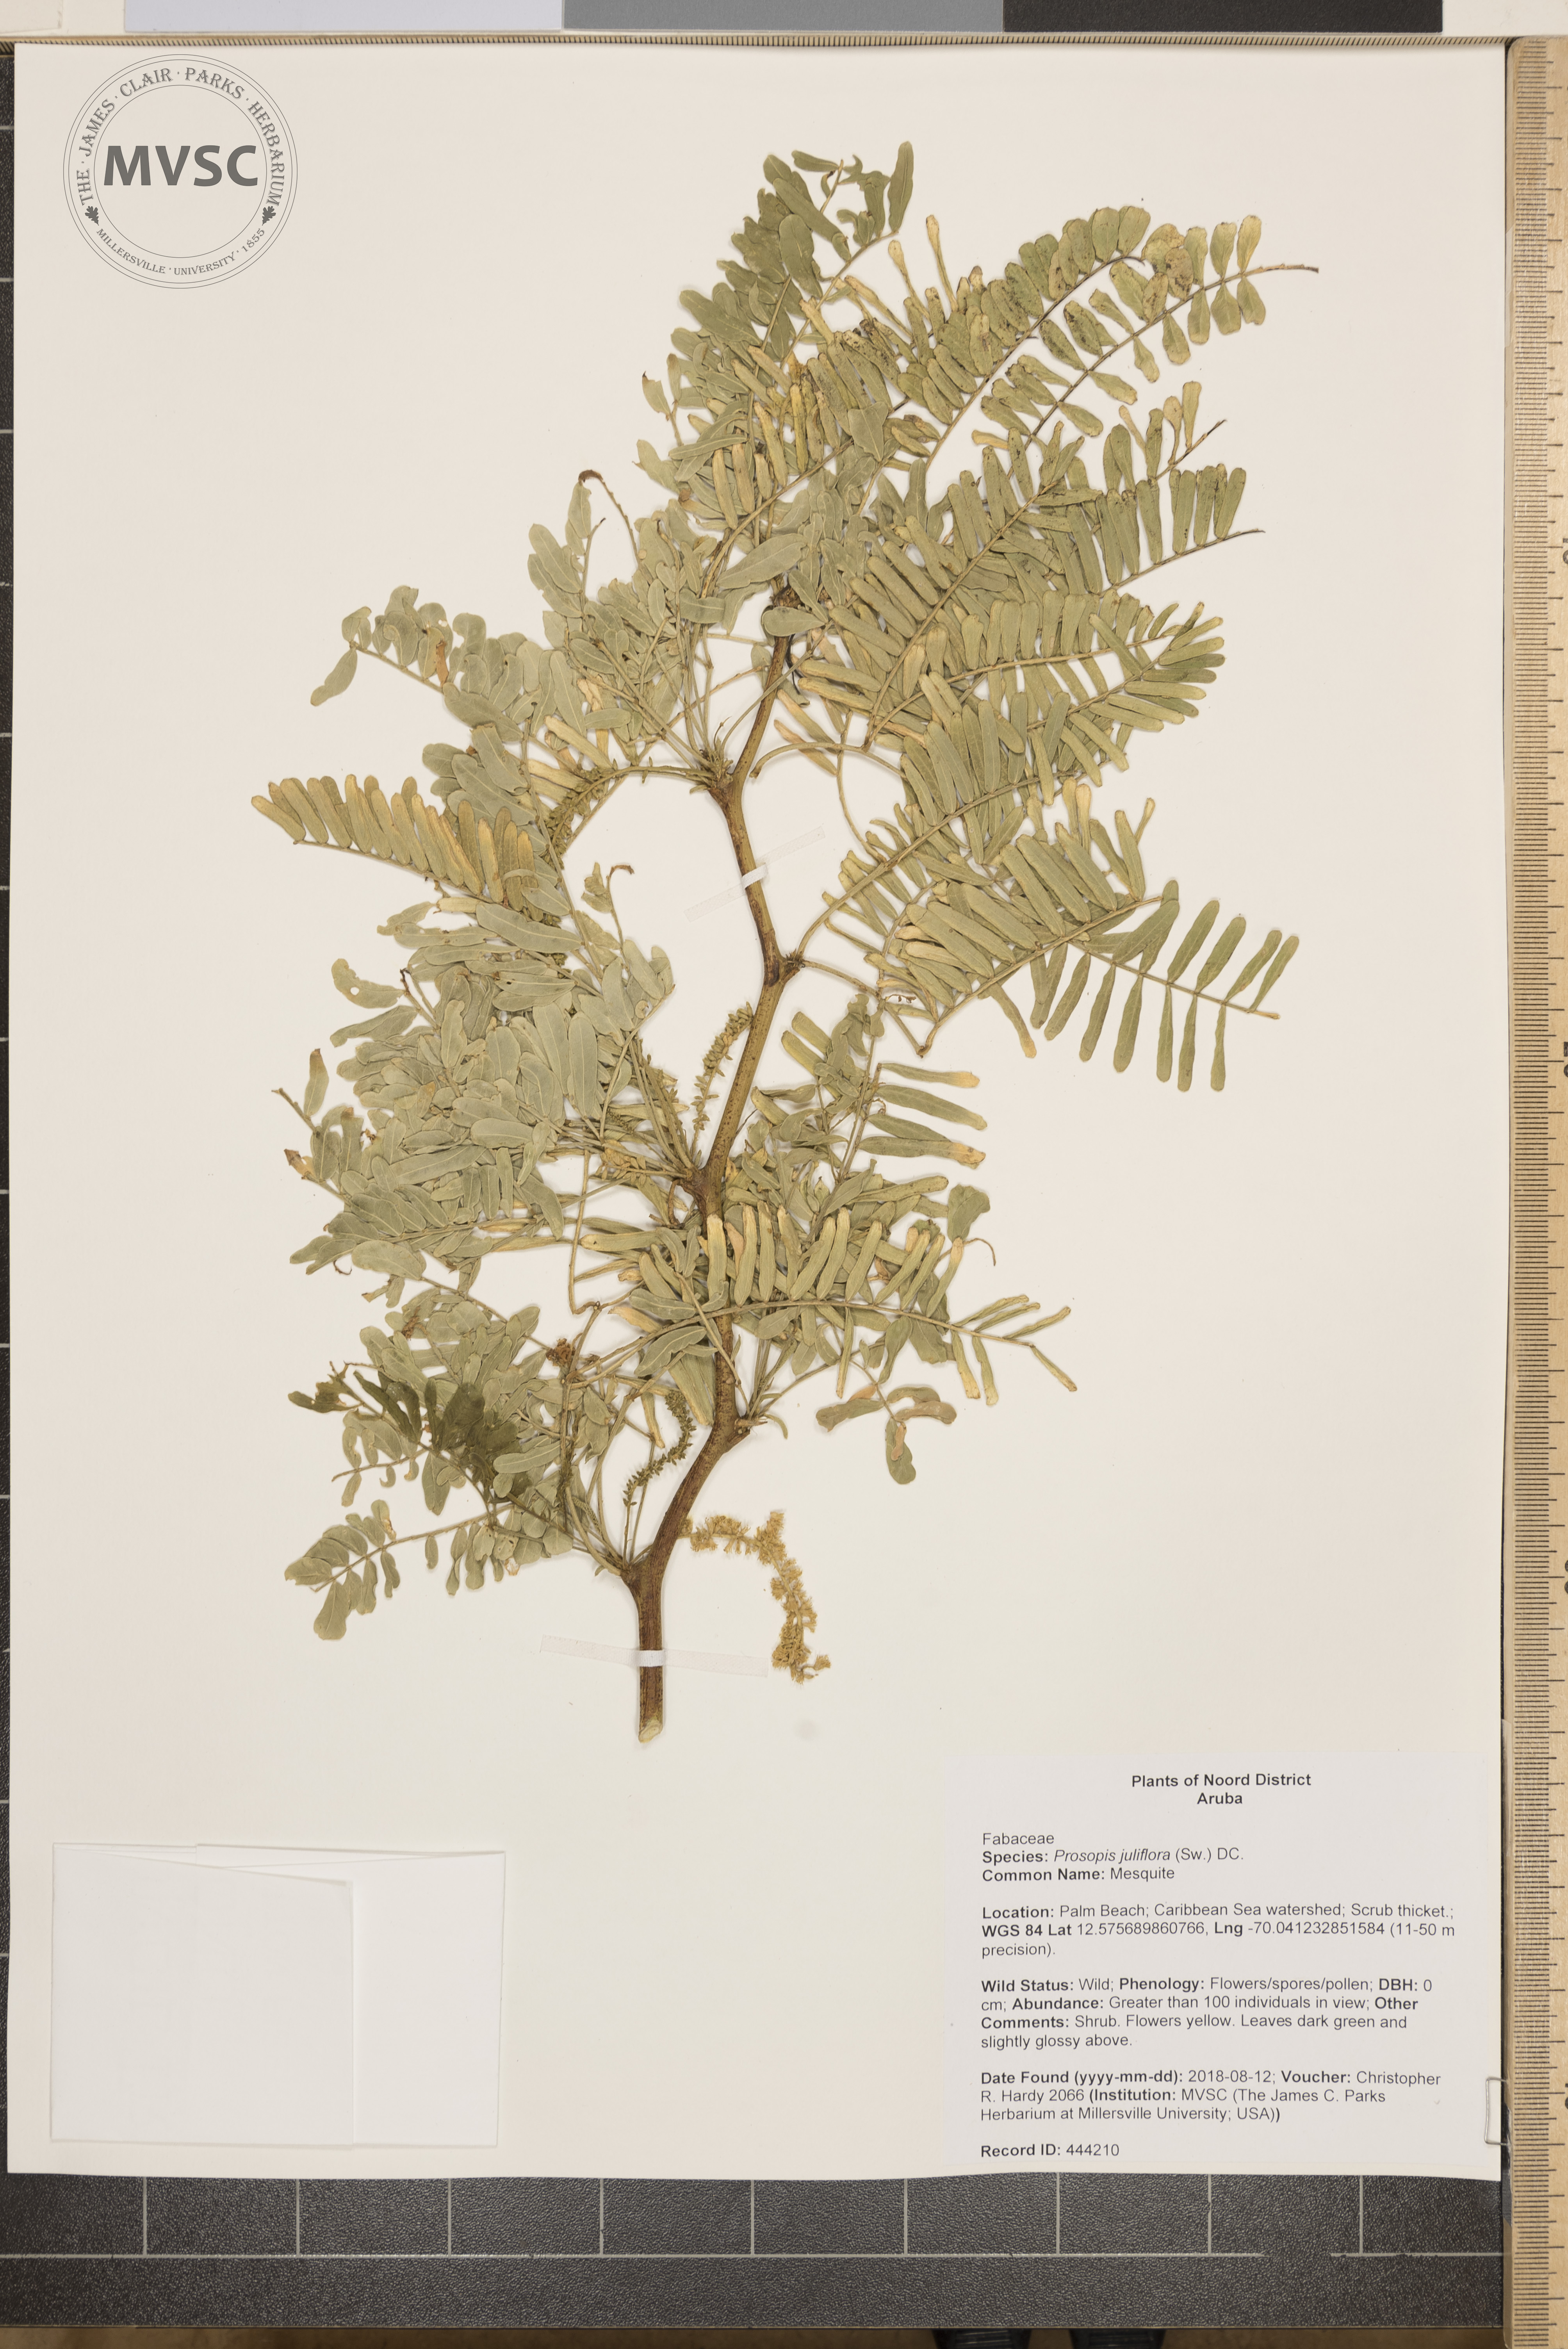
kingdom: Plantae
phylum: Tracheophyta
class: Magnoliopsida
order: Fabales
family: Fabaceae
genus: Prosopis
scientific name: Prosopis juliflora
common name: Mesquite
